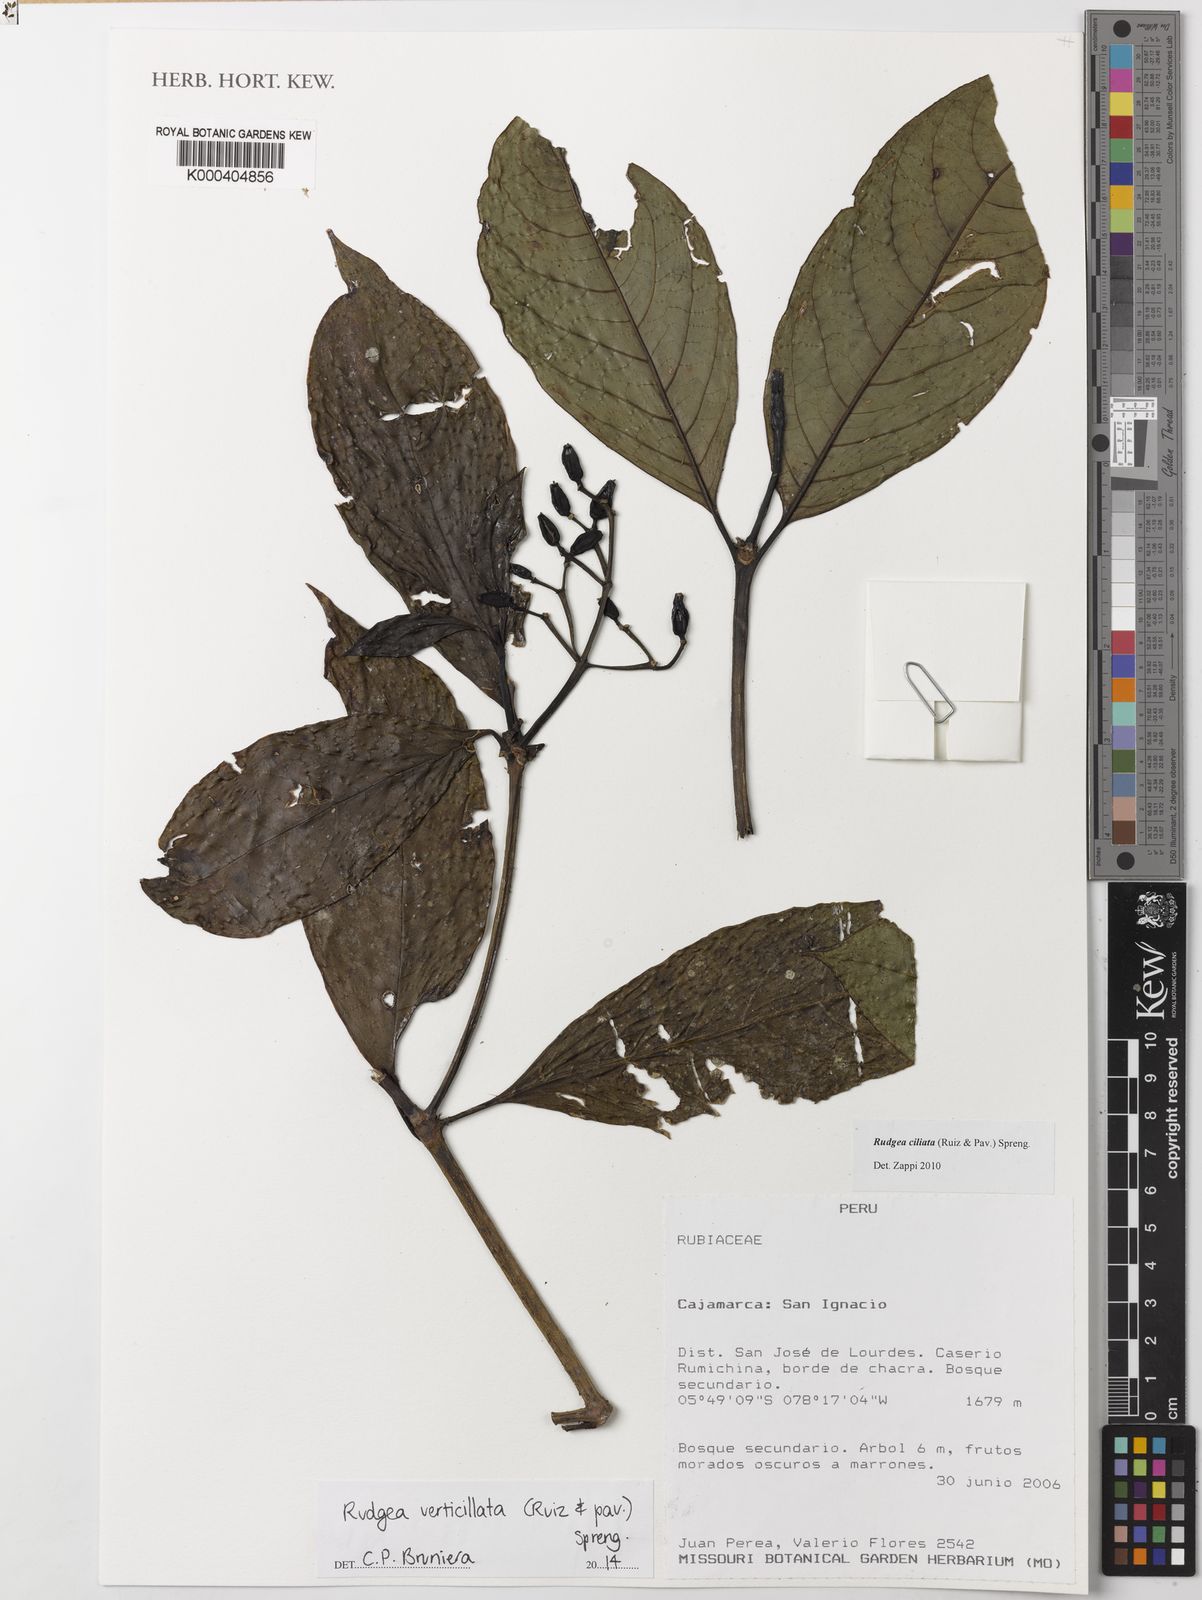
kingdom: Plantae
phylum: Tracheophyta
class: Magnoliopsida
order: Gentianales
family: Rubiaceae
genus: Rudgea
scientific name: Rudgea verticillata
